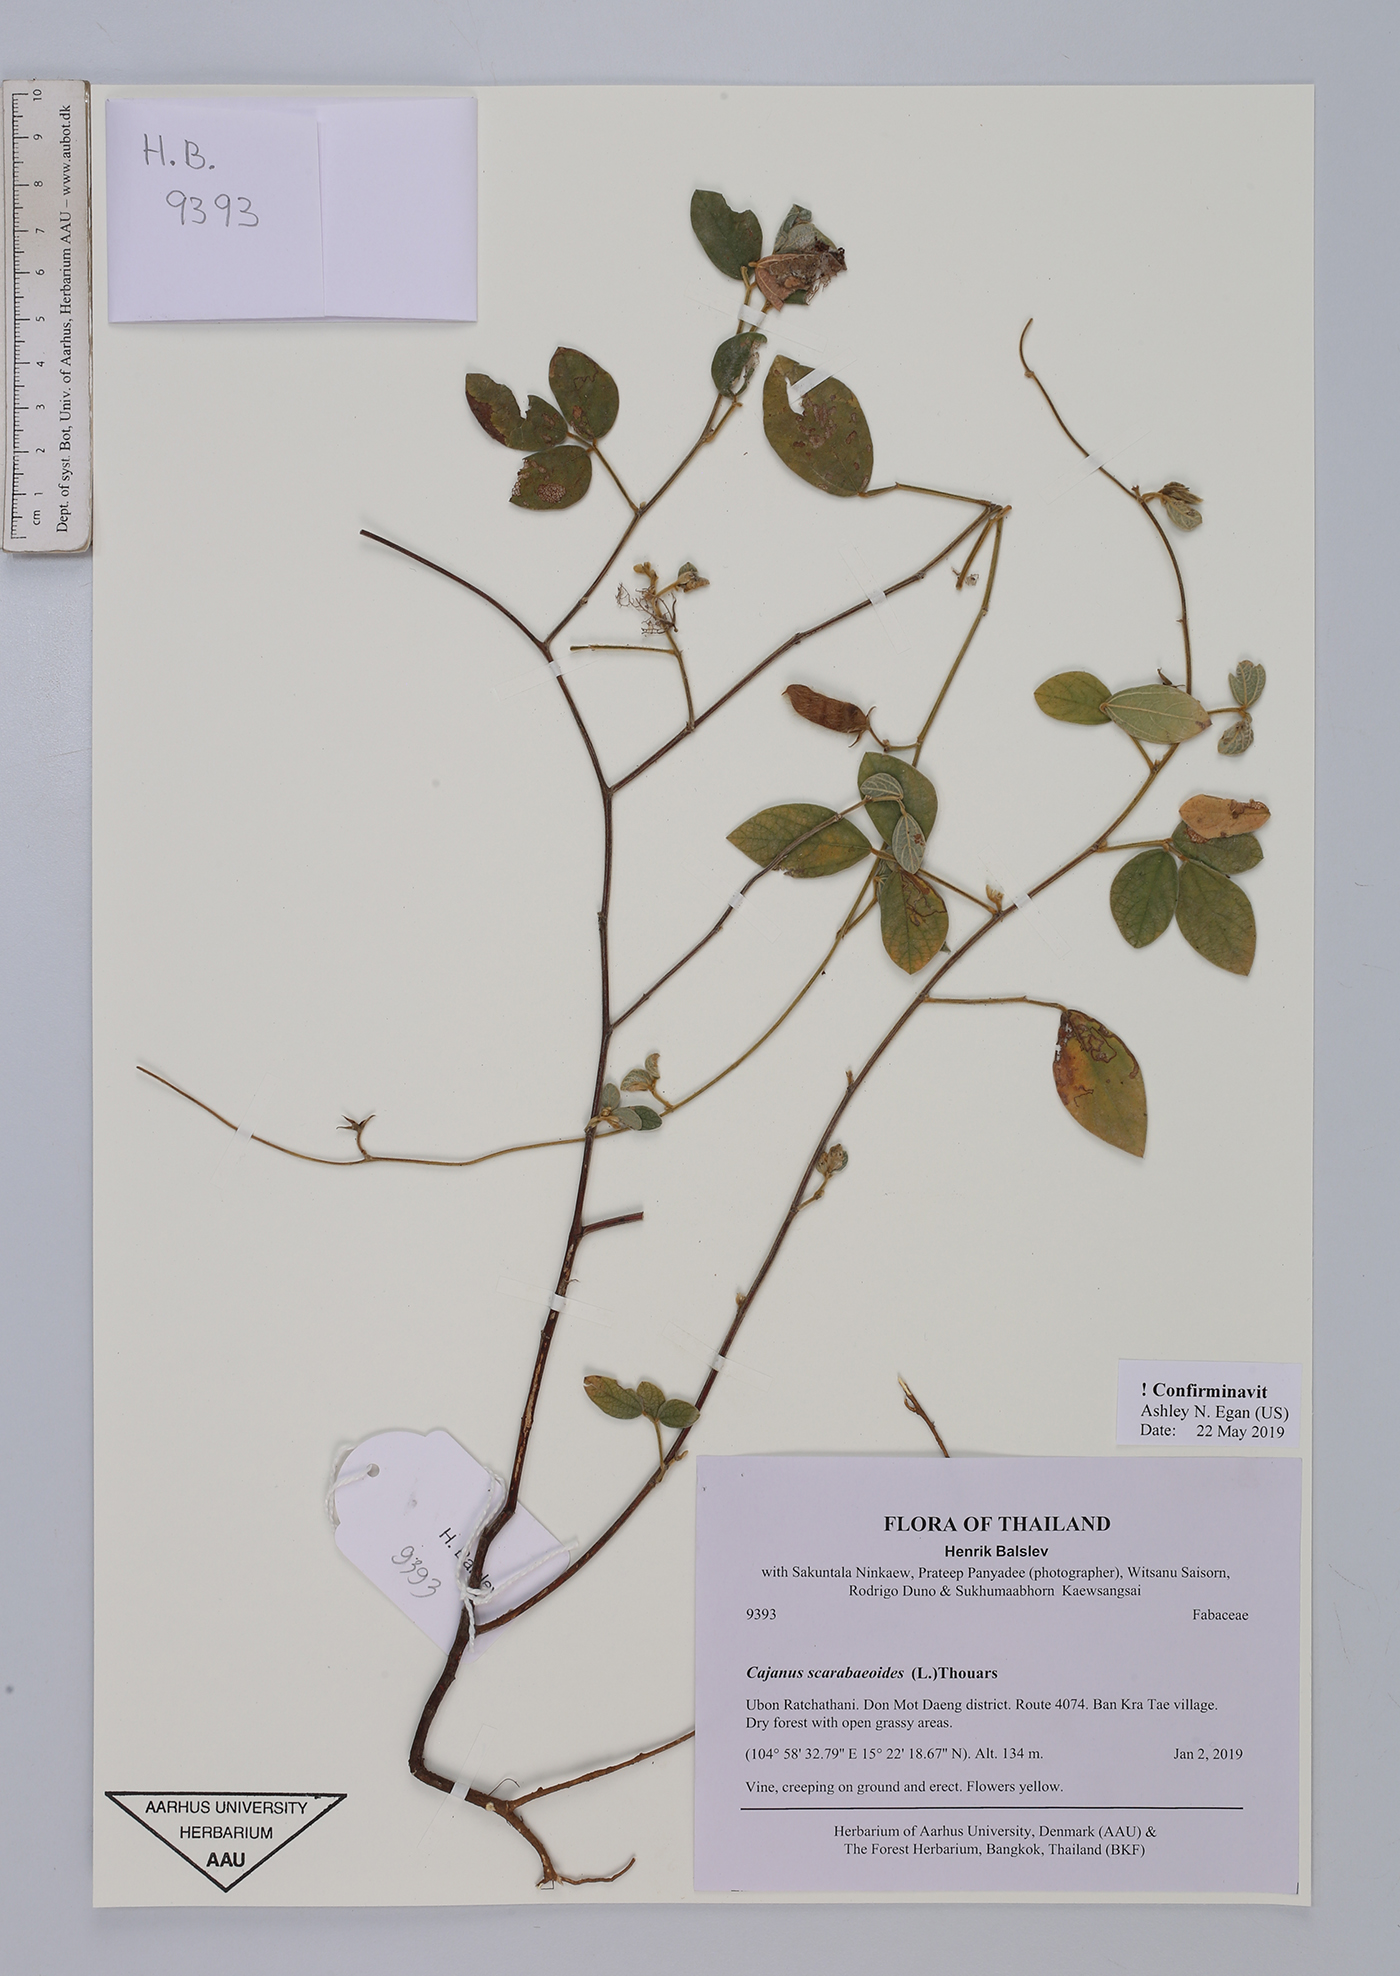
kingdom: Plantae
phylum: Tracheophyta
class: Magnoliopsida
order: Fabales
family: Fabaceae
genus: Cajanus
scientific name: Cajanus scarabaeoides
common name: Showy pigeonpea
